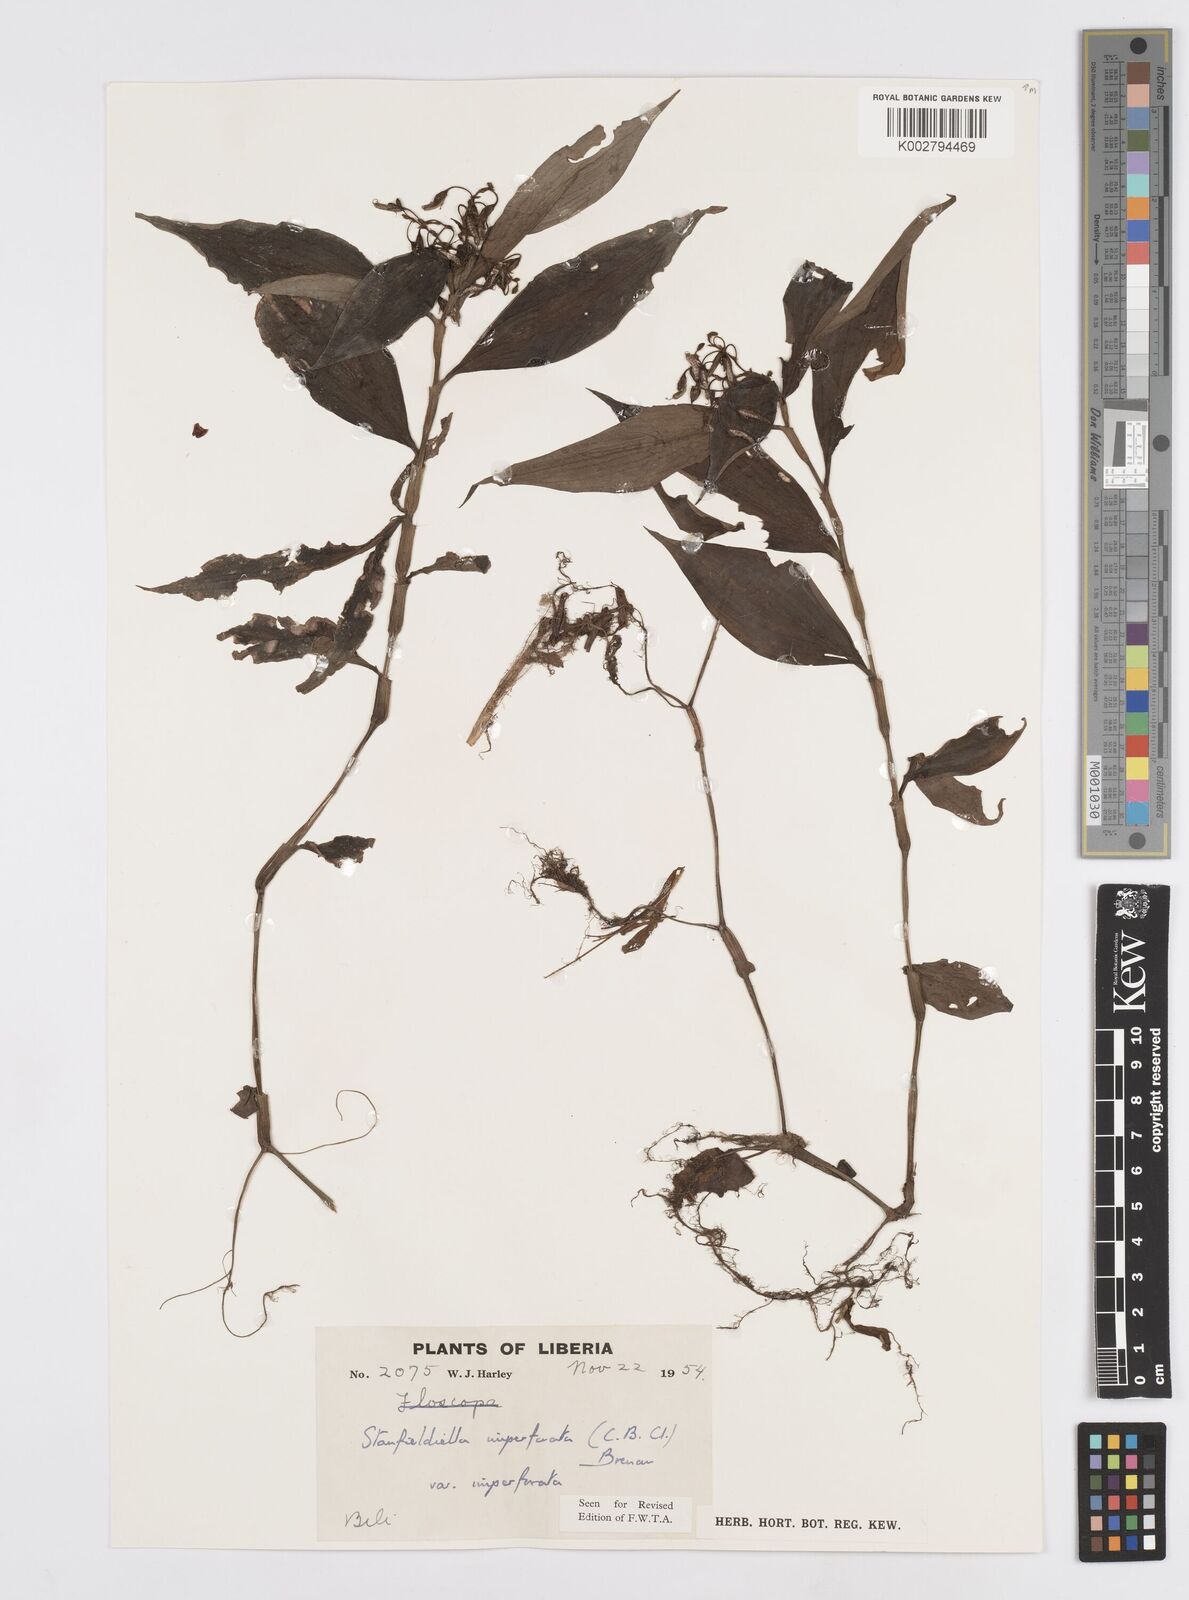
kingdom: Plantae
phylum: Tracheophyta
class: Liliopsida
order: Commelinales
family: Commelinaceae
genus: Stanfieldiella
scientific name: Stanfieldiella imperforata
